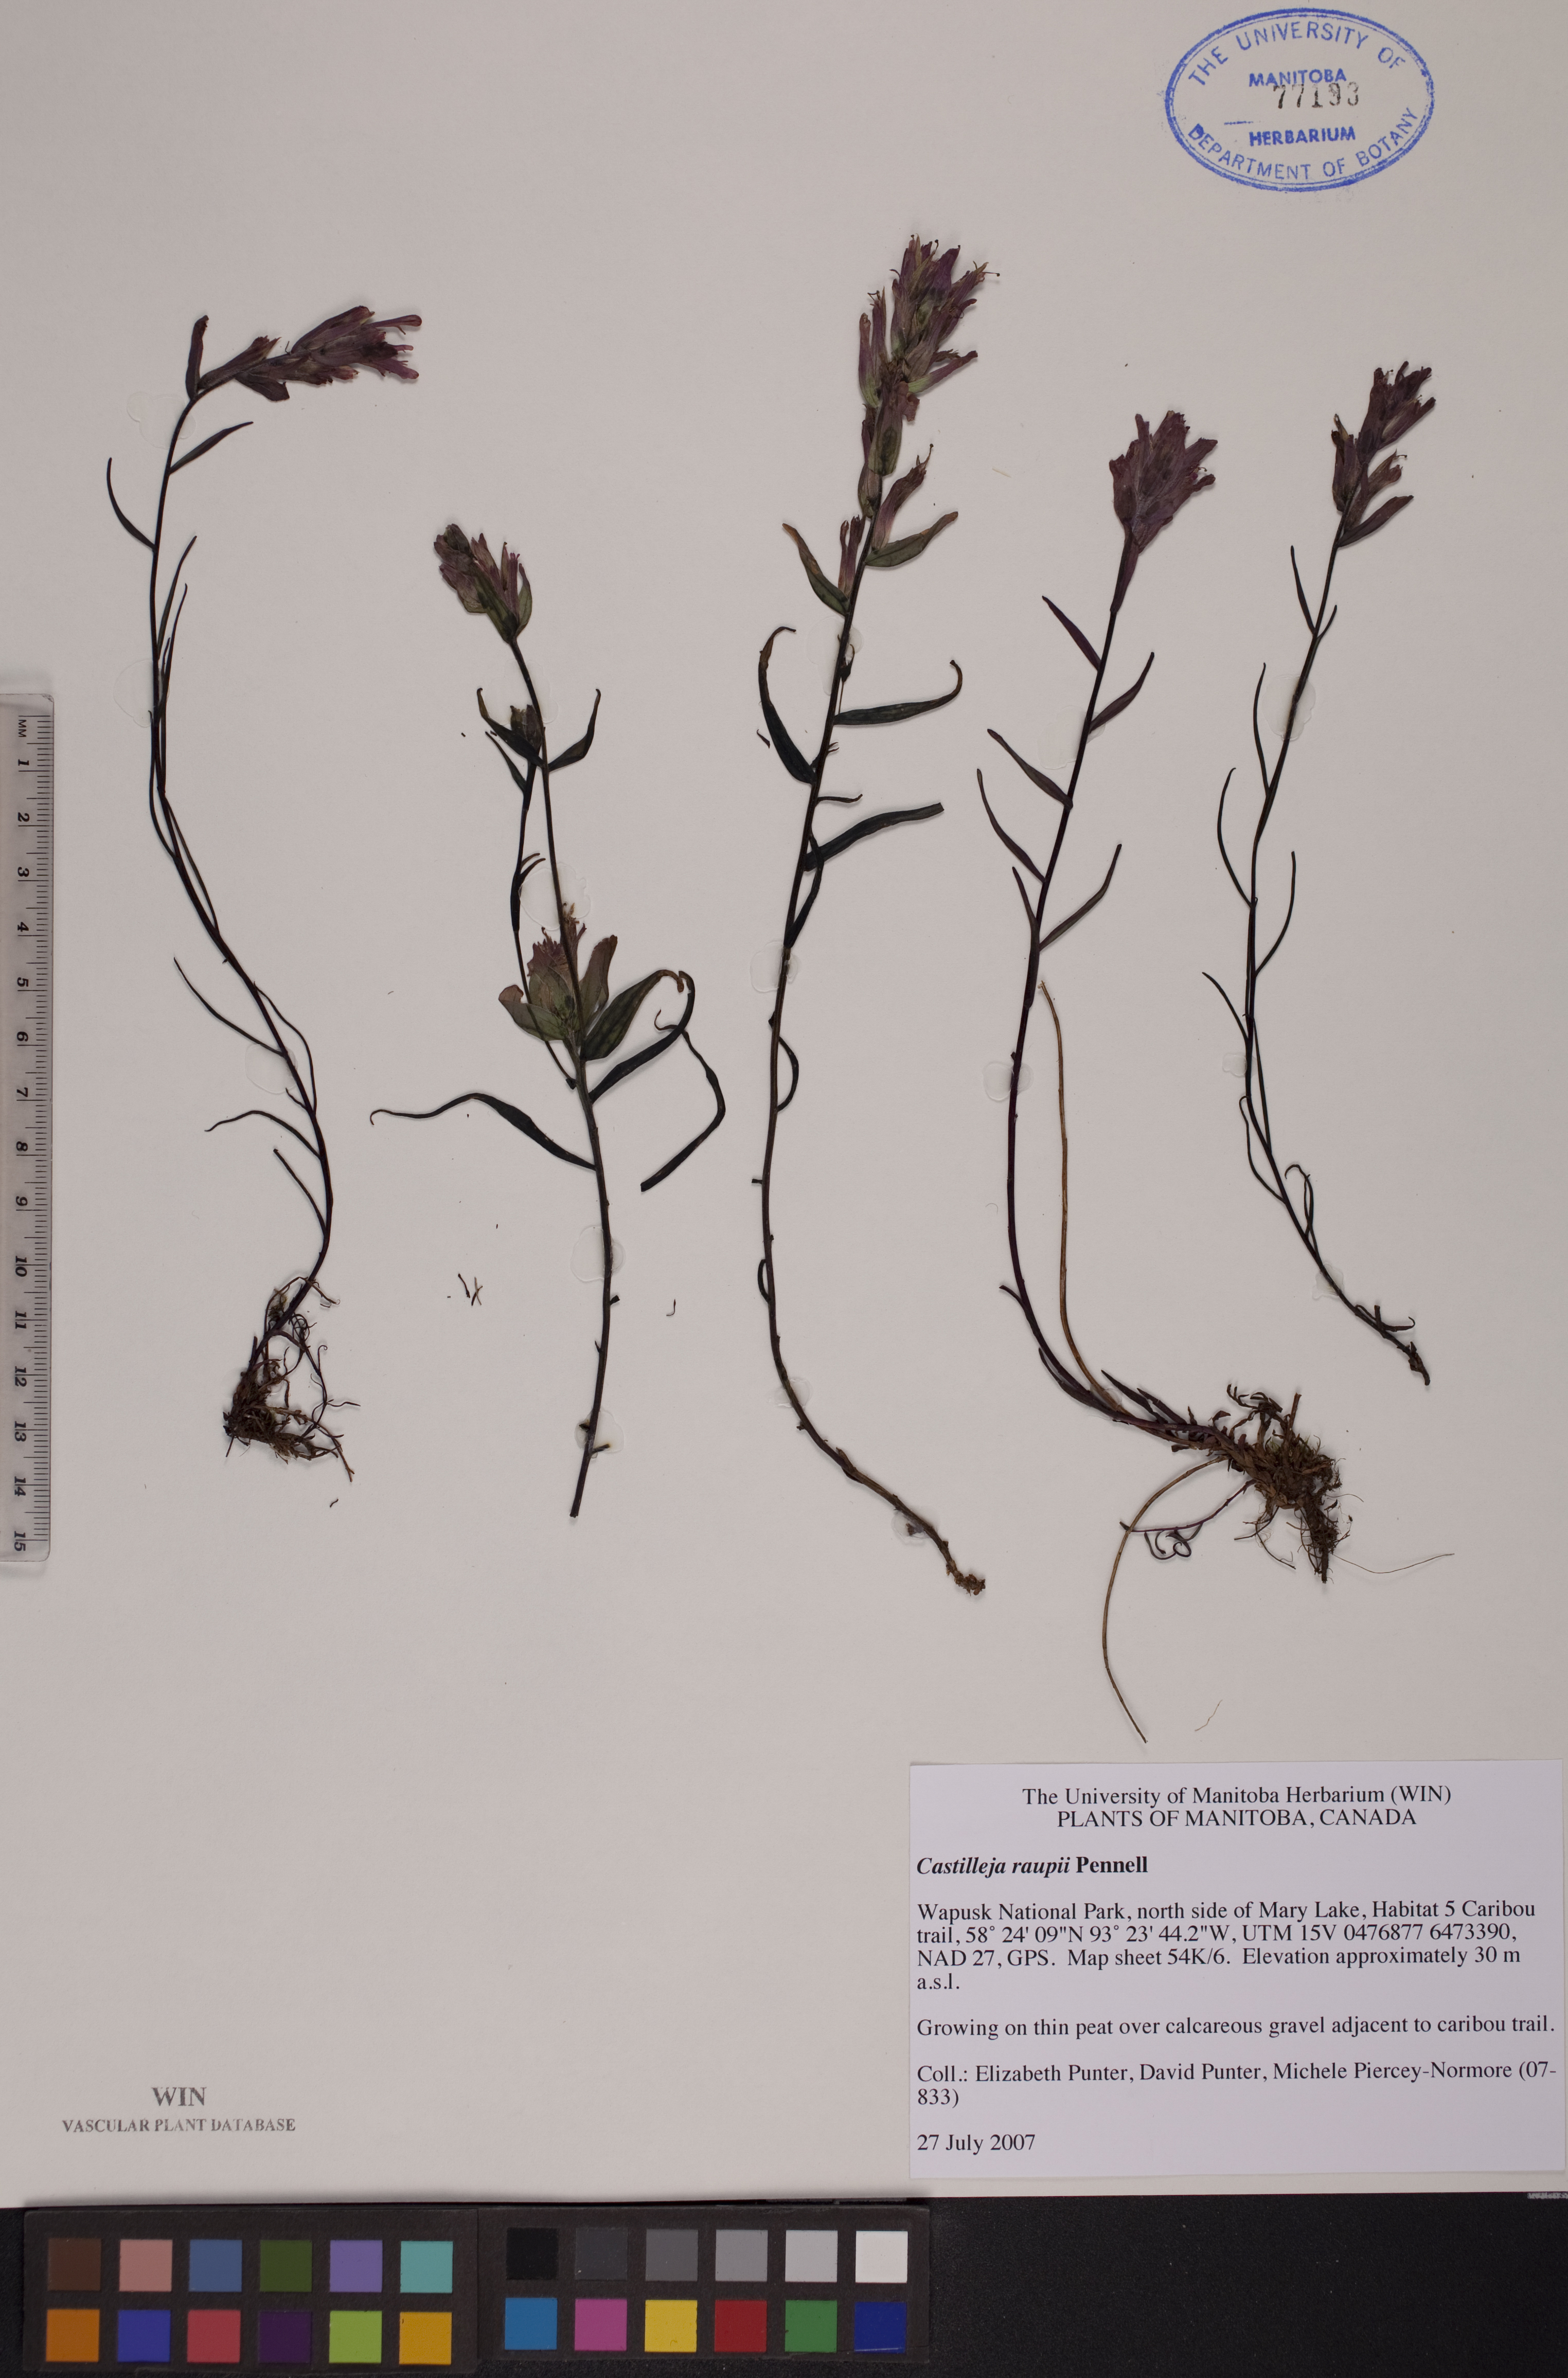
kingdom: Plantae
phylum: Tracheophyta
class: Magnoliopsida
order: Lamiales
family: Orobanchaceae
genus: Castilleja
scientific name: Castilleja raupii
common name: Raup's paintbrush
